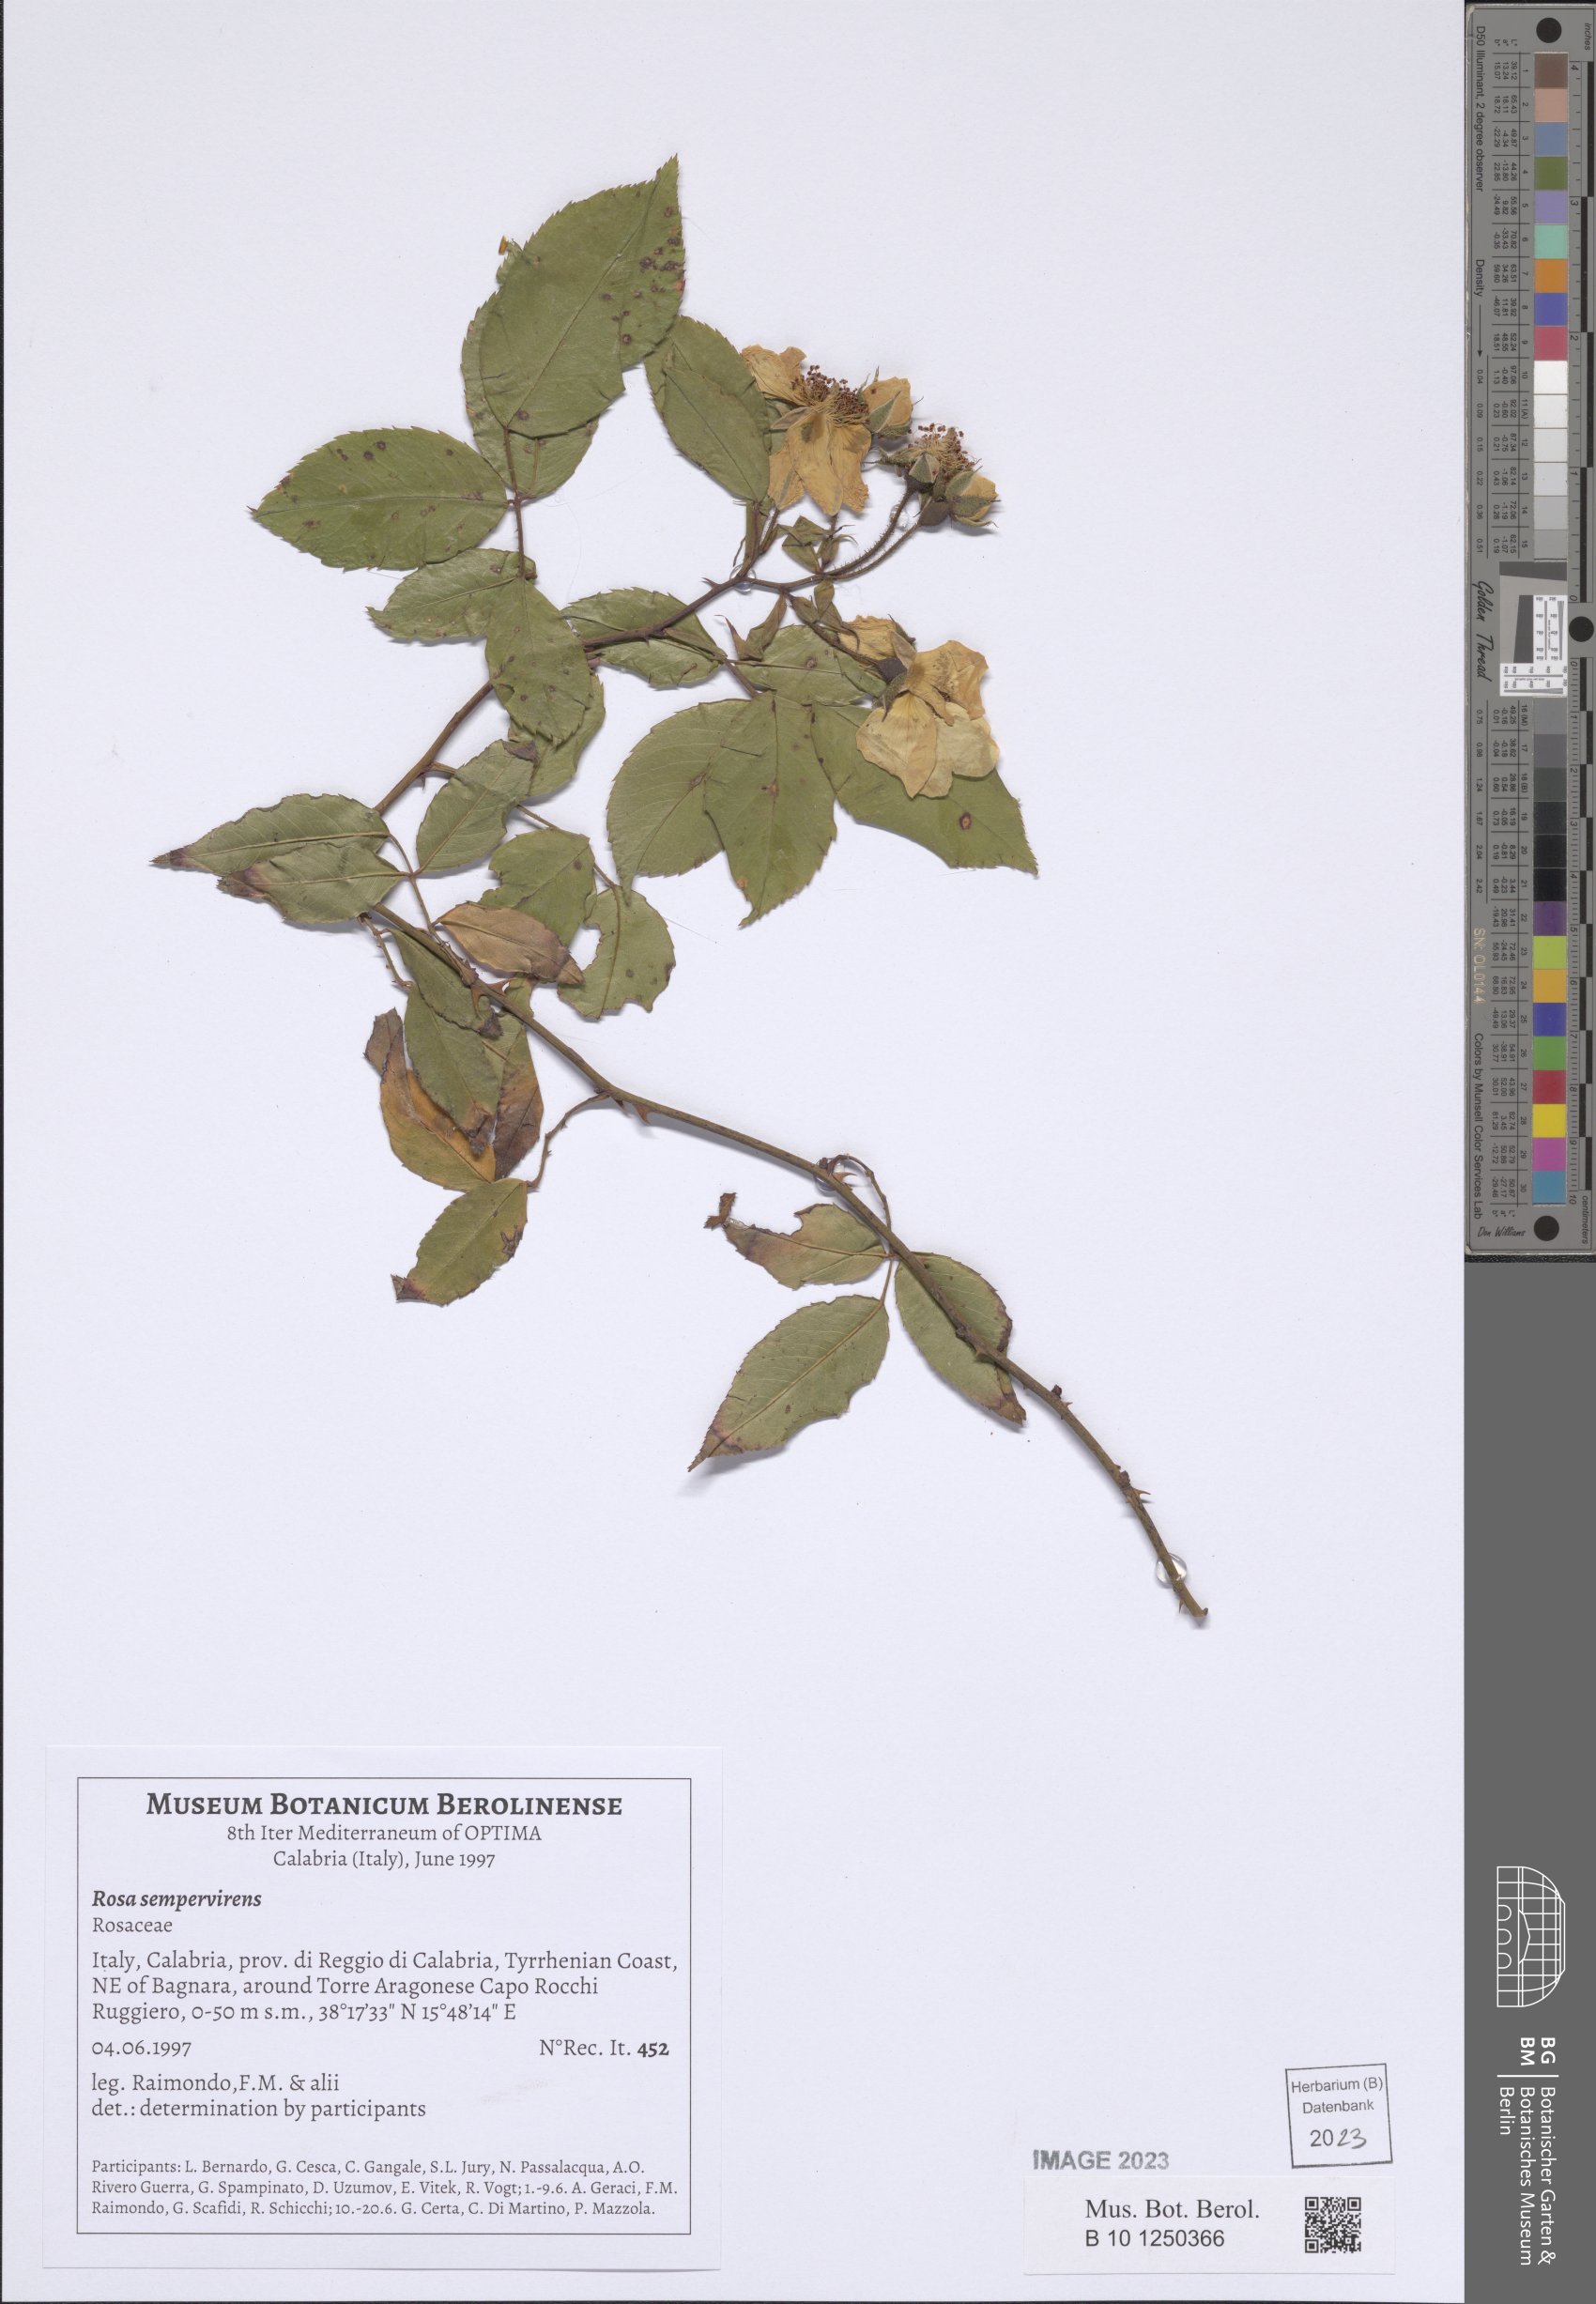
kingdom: Plantae
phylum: Tracheophyta
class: Magnoliopsida
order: Rosales
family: Rosaceae
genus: Rosa
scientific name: Rosa sempervirens
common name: Evergreen rose
